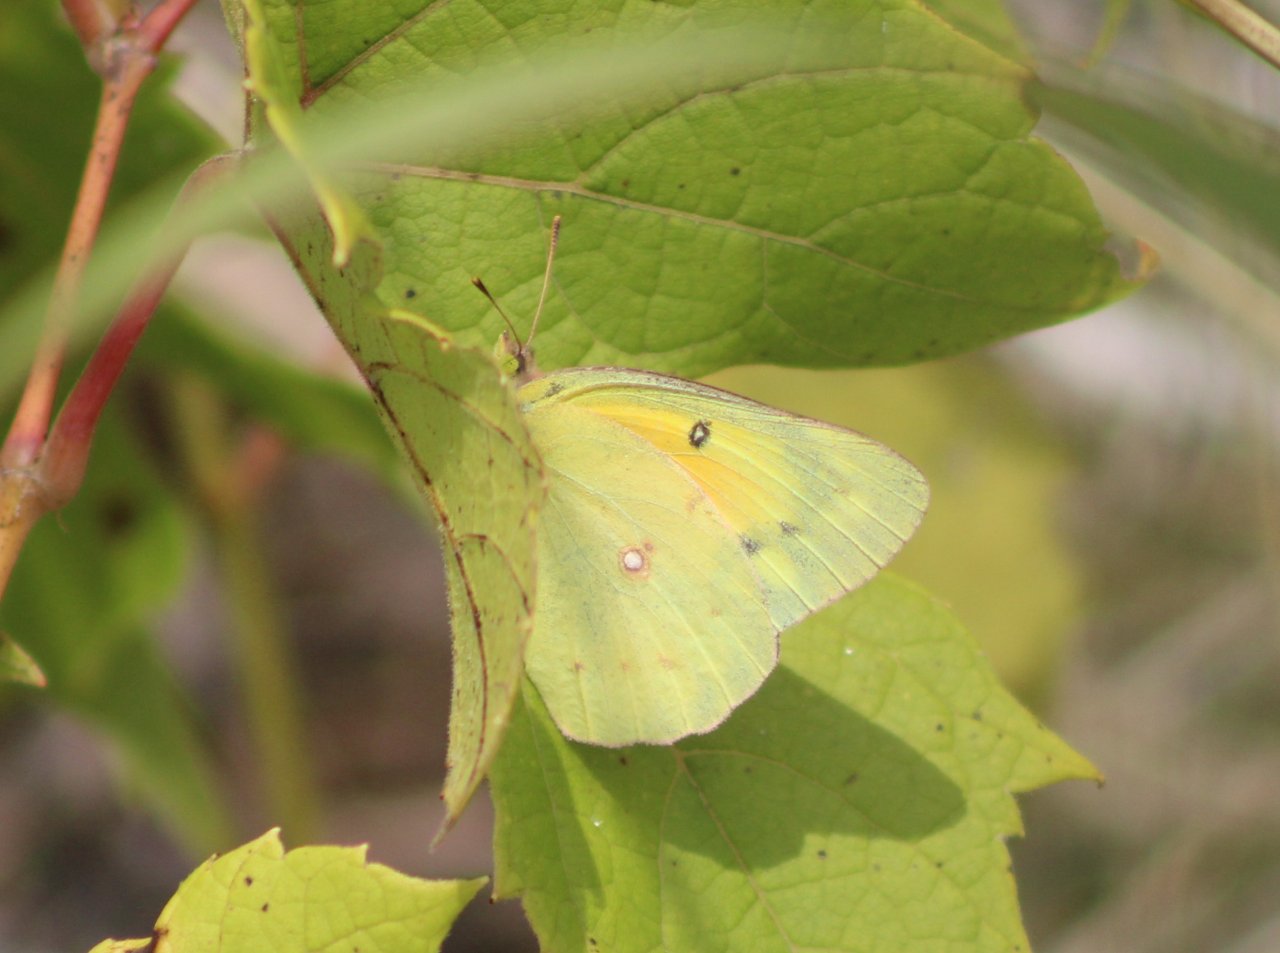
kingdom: Animalia
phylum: Arthropoda
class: Insecta
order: Lepidoptera
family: Pieridae
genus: Colias
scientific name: Colias eurytheme
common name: Orange Sulphur
